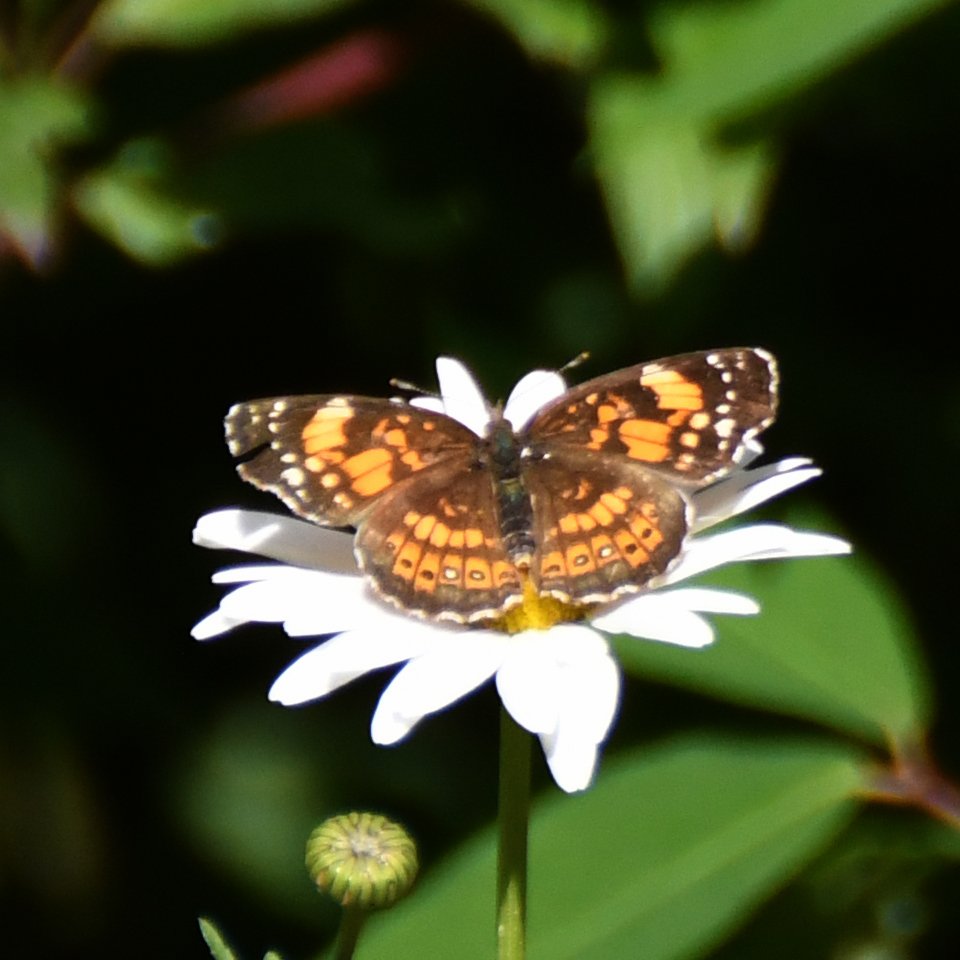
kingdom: Animalia
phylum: Arthropoda
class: Insecta
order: Lepidoptera
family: Nymphalidae
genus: Chlosyne
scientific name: Chlosyne nycteis
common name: Silvery Checkerspot
